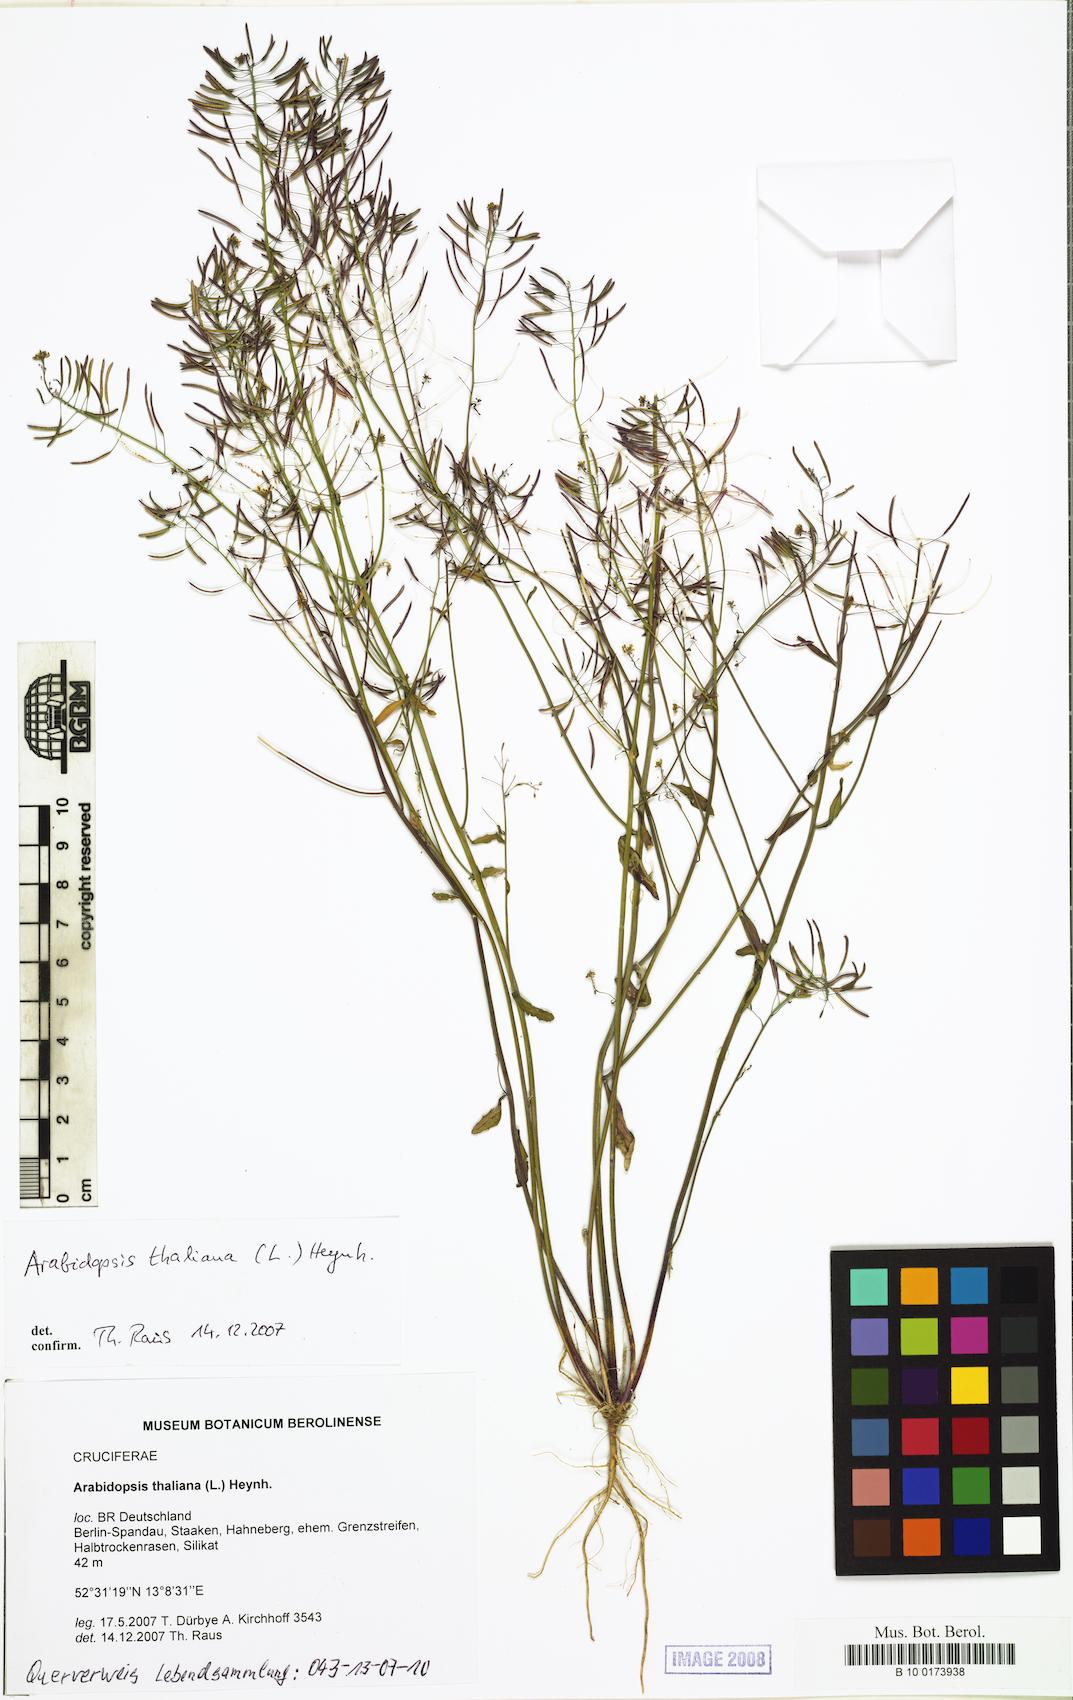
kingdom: Plantae
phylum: Tracheophyta
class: Magnoliopsida
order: Brassicales
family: Brassicaceae
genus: Arabidopsis
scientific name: Arabidopsis thaliana
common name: Thale cress
